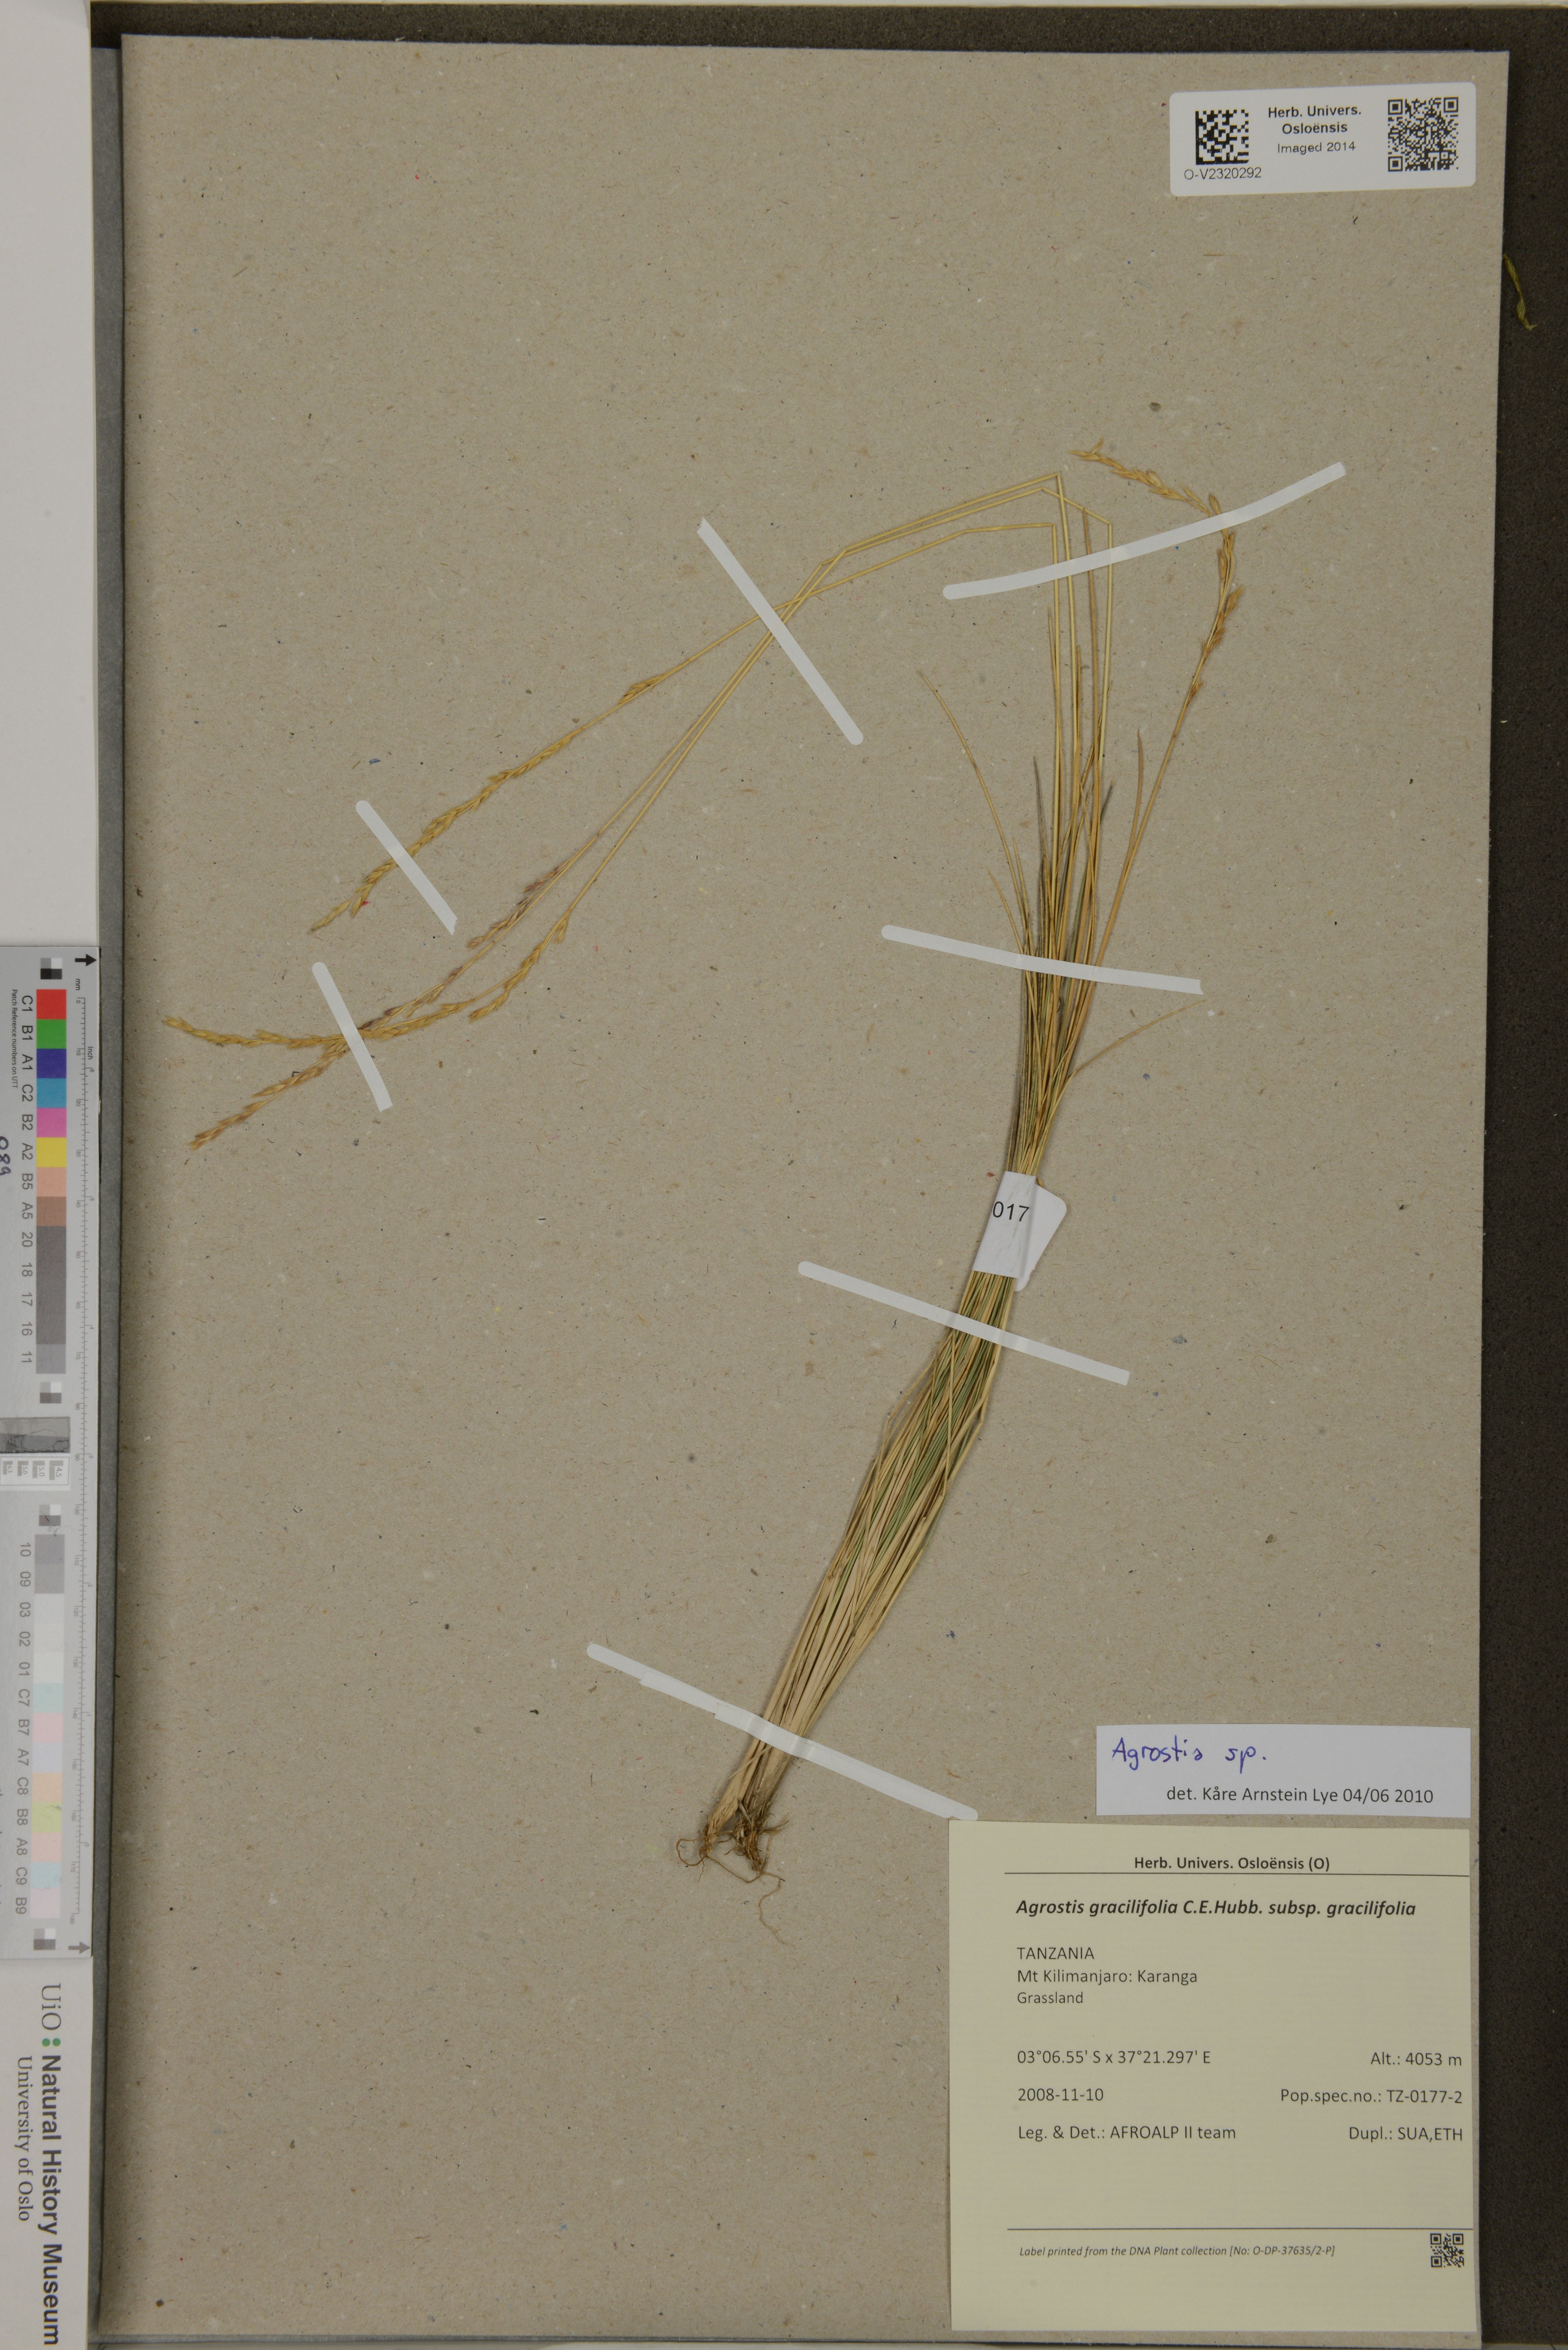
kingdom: Plantae
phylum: Tracheophyta
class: Liliopsida
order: Poales
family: Poaceae
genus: Agrostis
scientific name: Agrostis
